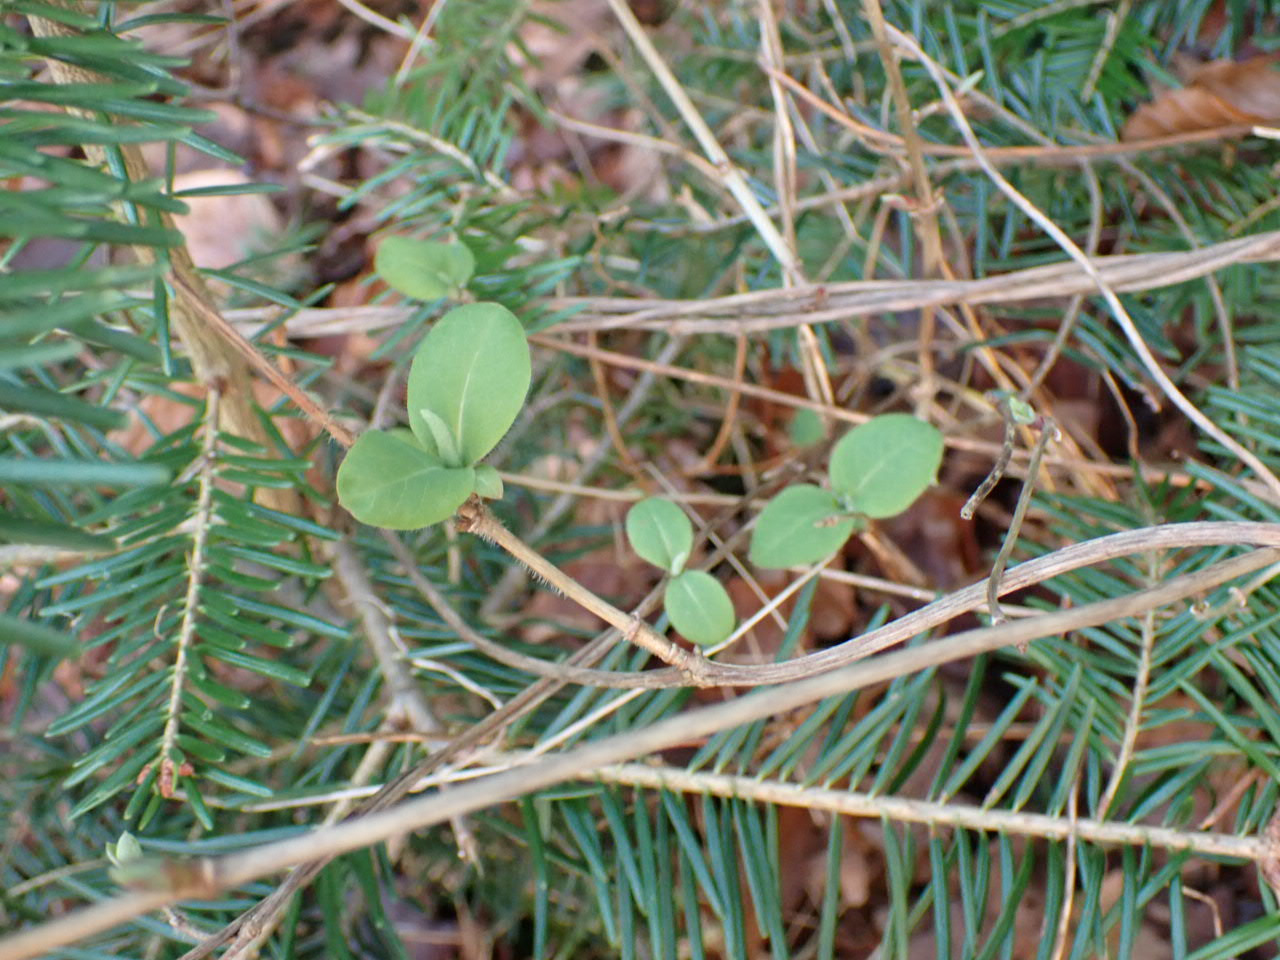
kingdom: Plantae
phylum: Tracheophyta
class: Magnoliopsida
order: Dipsacales
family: Caprifoliaceae
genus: Lonicera
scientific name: Lonicera periclymenum
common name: Almindelig gedeblad
